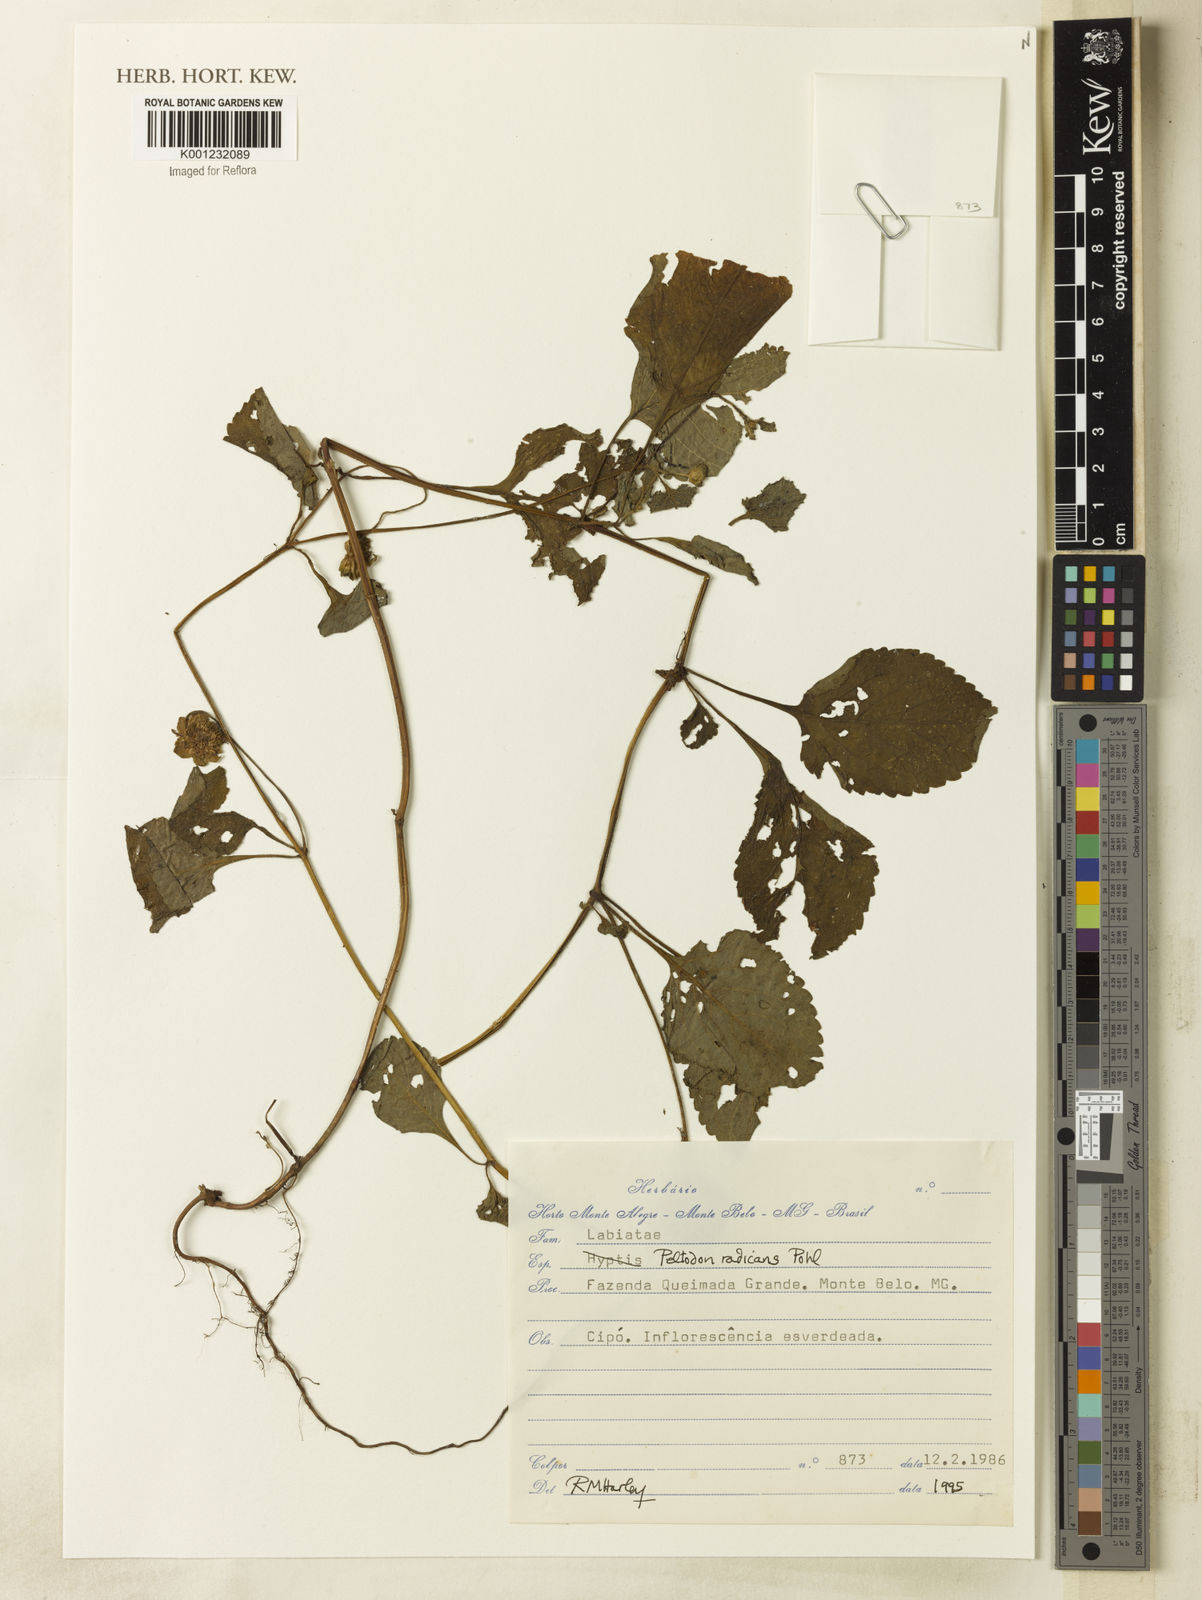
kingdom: Plantae
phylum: Tracheophyta
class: Magnoliopsida
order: Lamiales
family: Lamiaceae
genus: Hyptis
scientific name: Hyptis radicans
